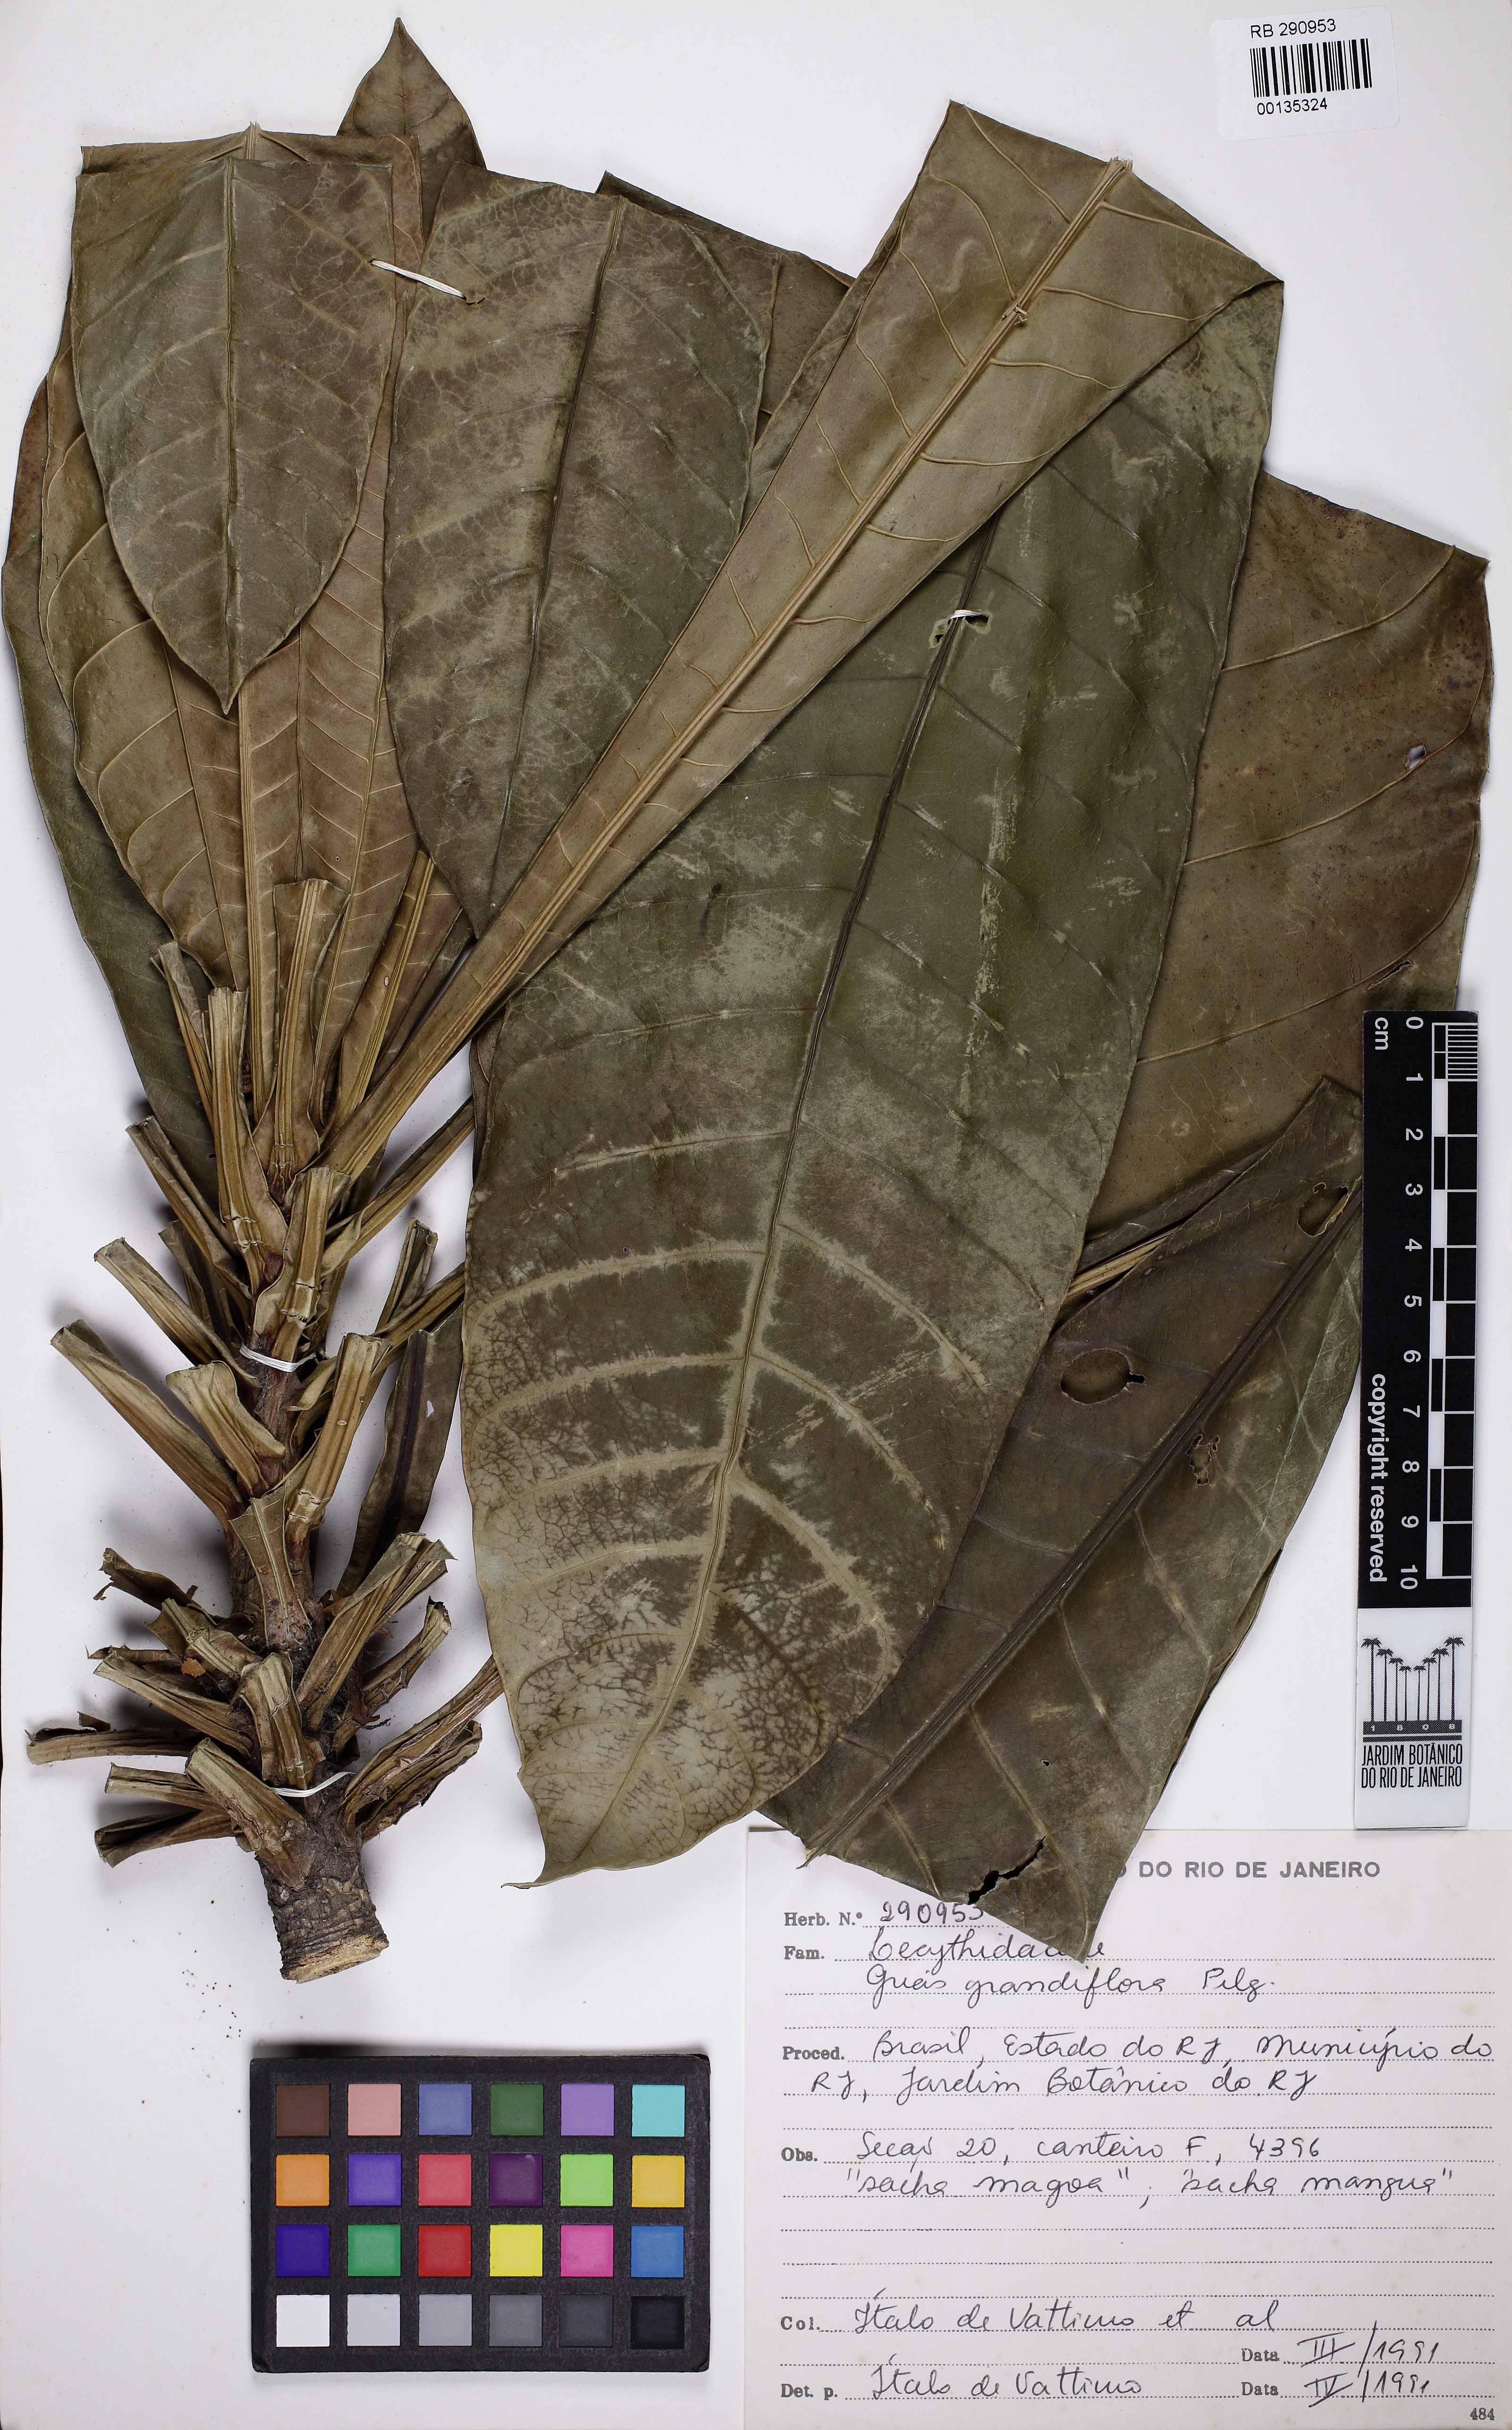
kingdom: Plantae
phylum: Tracheophyta
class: Magnoliopsida
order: Ericales
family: Lecythidaceae
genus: Grias
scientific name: Grias peruviana
